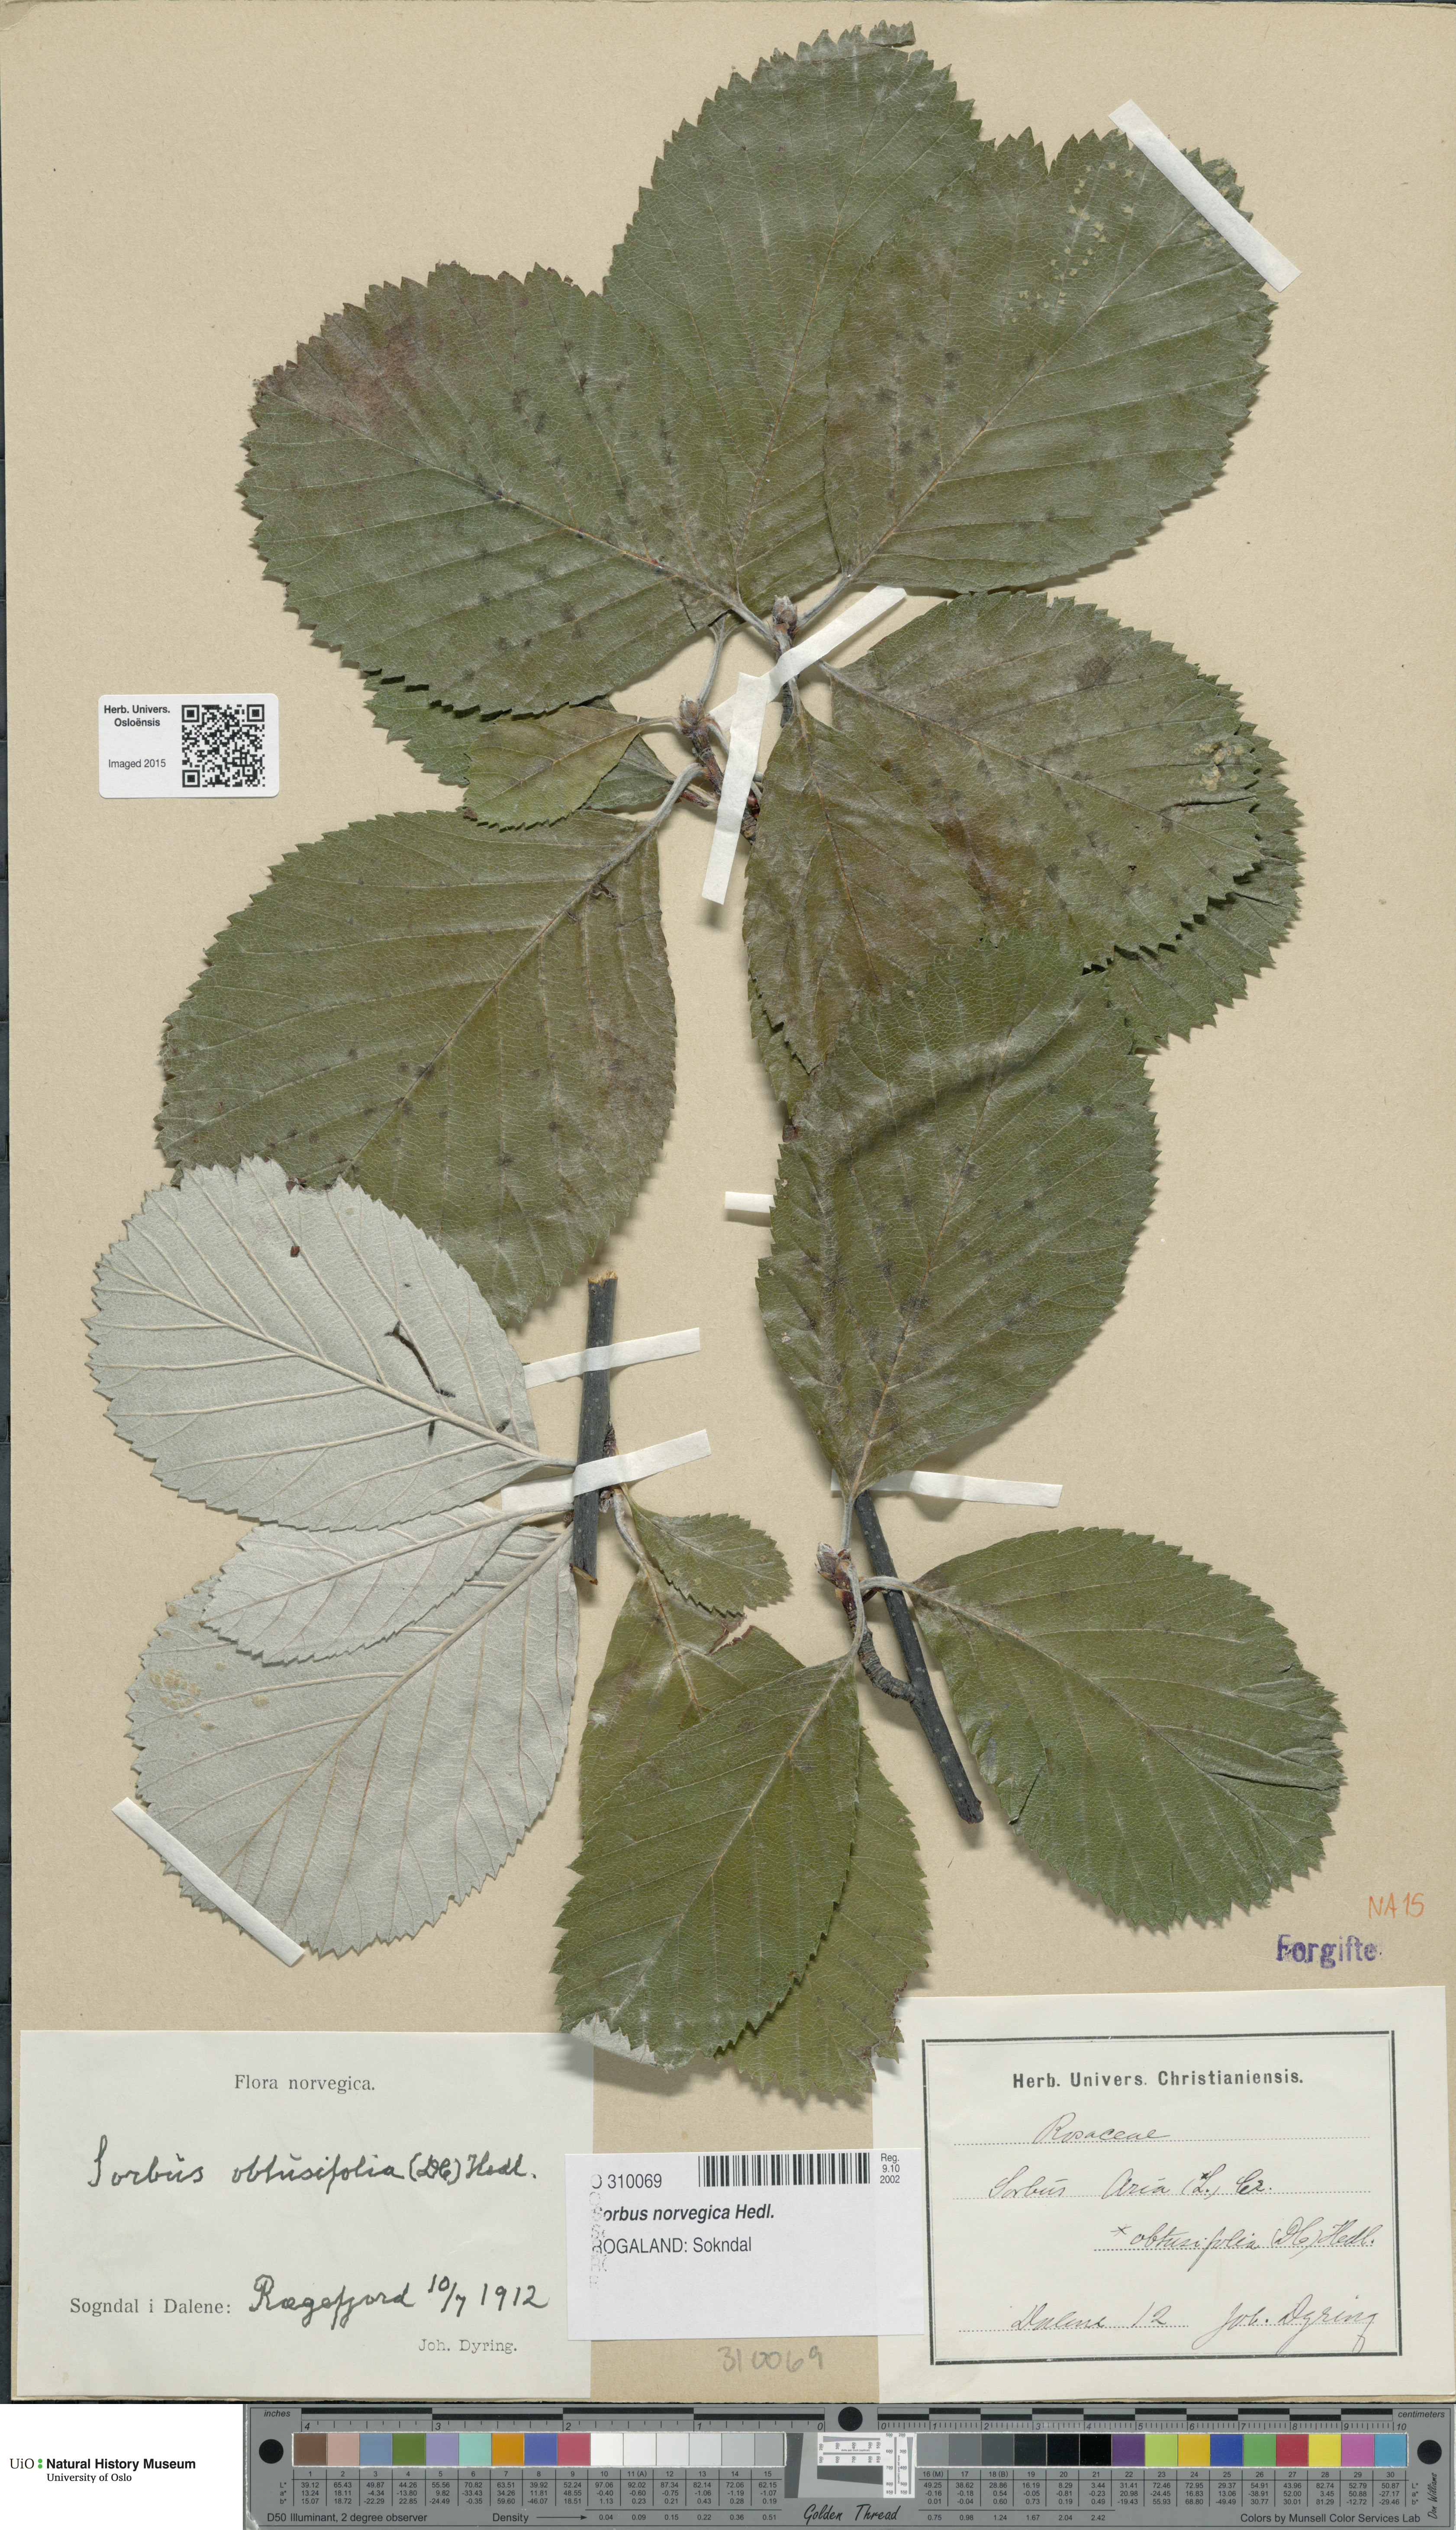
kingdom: Plantae
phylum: Tracheophyta
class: Magnoliopsida
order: Rosales
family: Rosaceae
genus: Aria
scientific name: Aria obtusifolia
